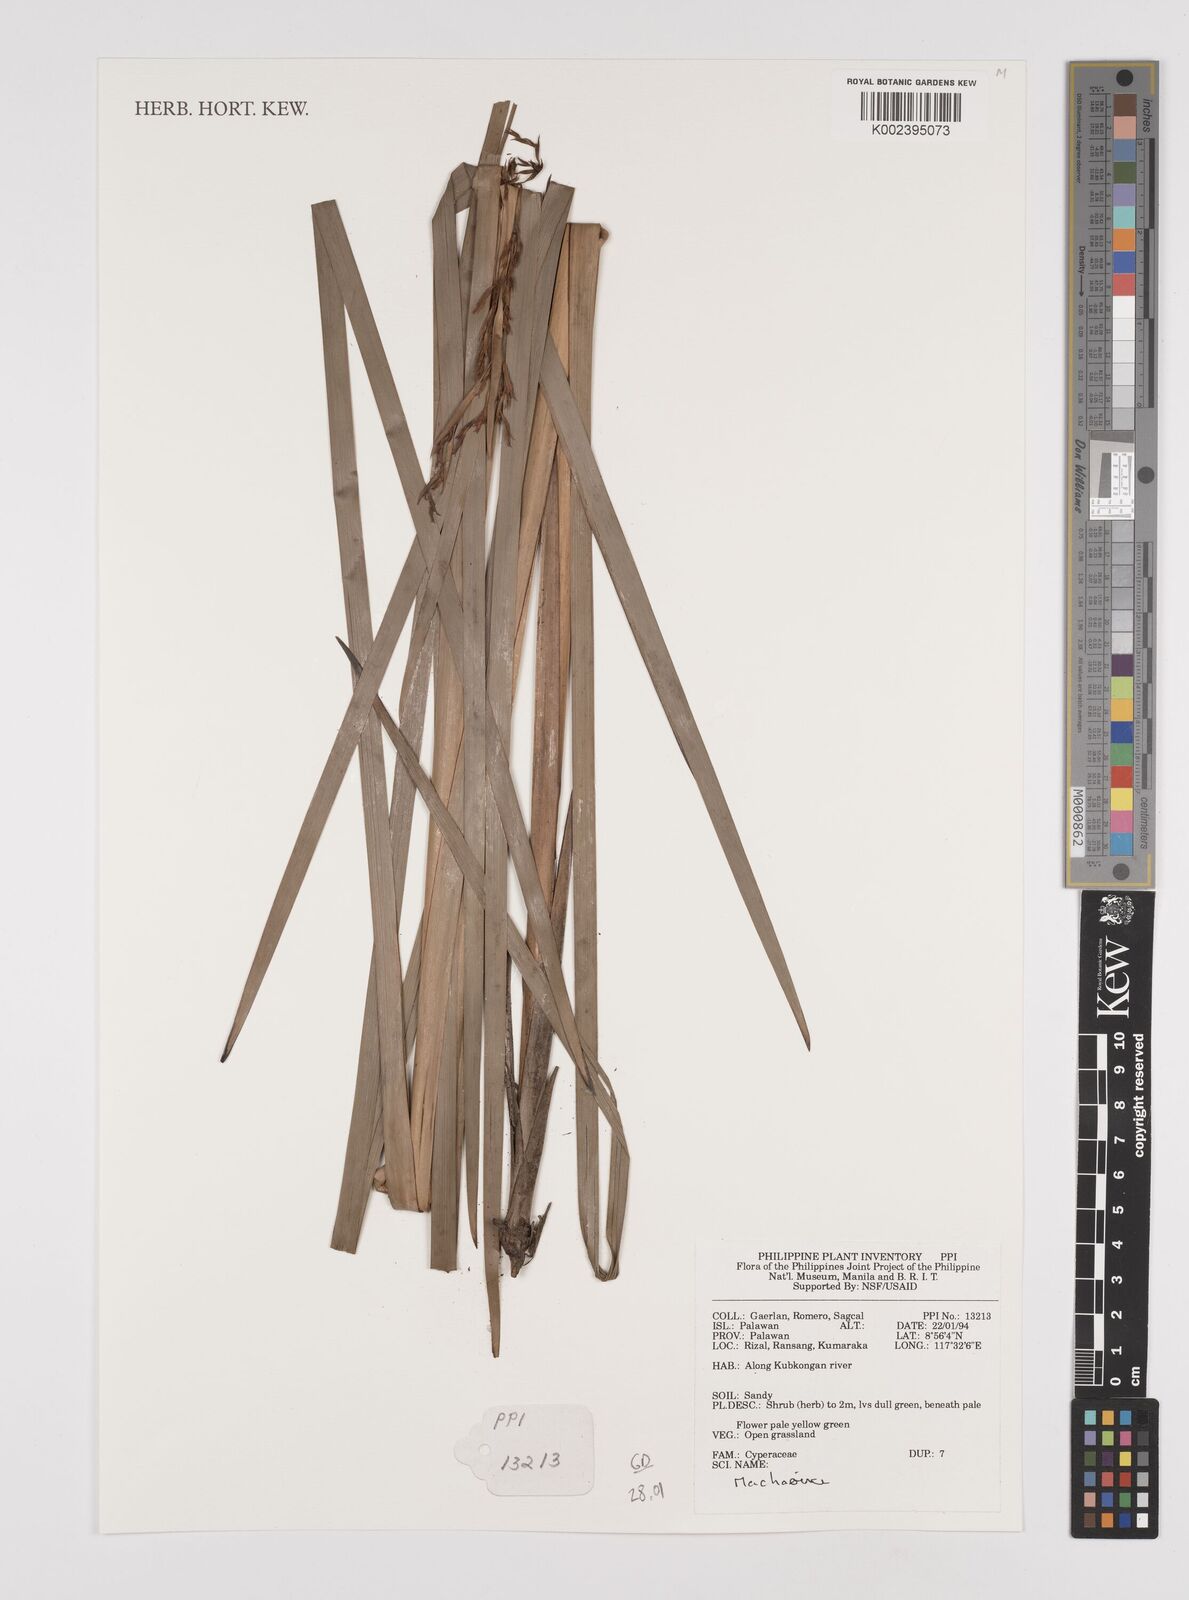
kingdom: Plantae
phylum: Tracheophyta
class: Liliopsida
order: Poales
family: Cyperaceae
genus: Machaerina
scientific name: Machaerina
